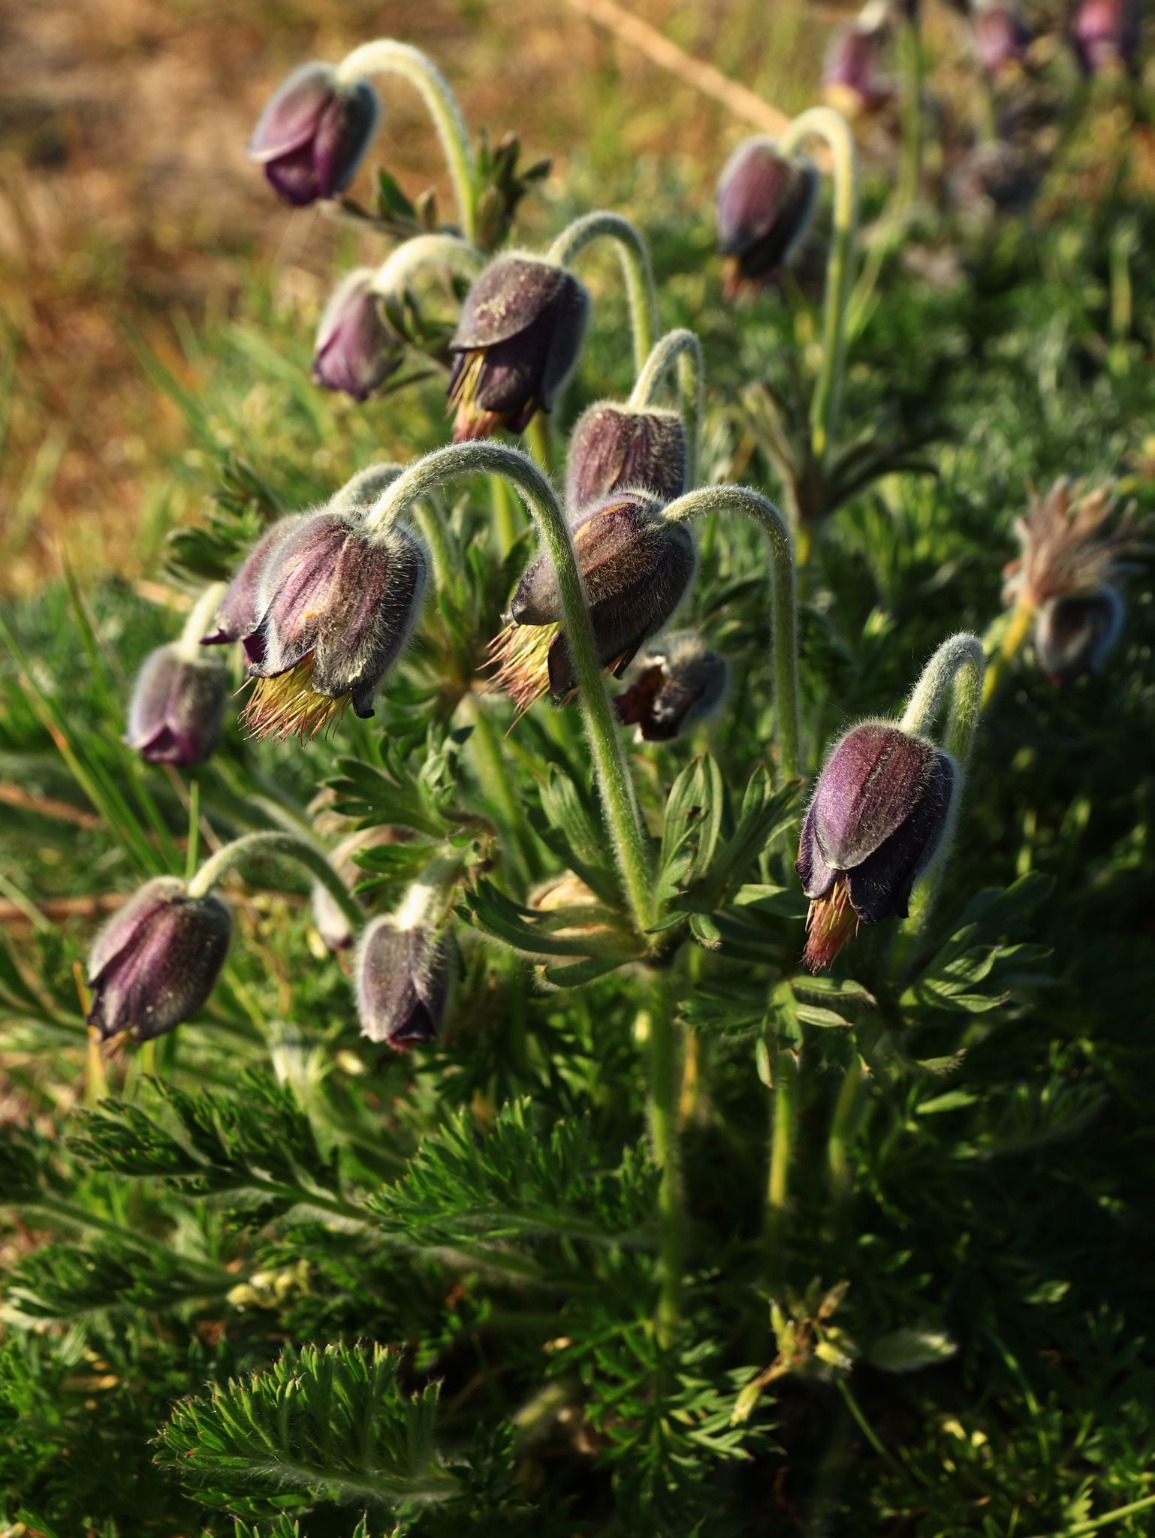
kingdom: Plantae
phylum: Tracheophyta
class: Magnoliopsida
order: Ranunculales
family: Ranunculaceae
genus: Pulsatilla
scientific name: Pulsatilla pratensis
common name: Nikkende kobjælde
